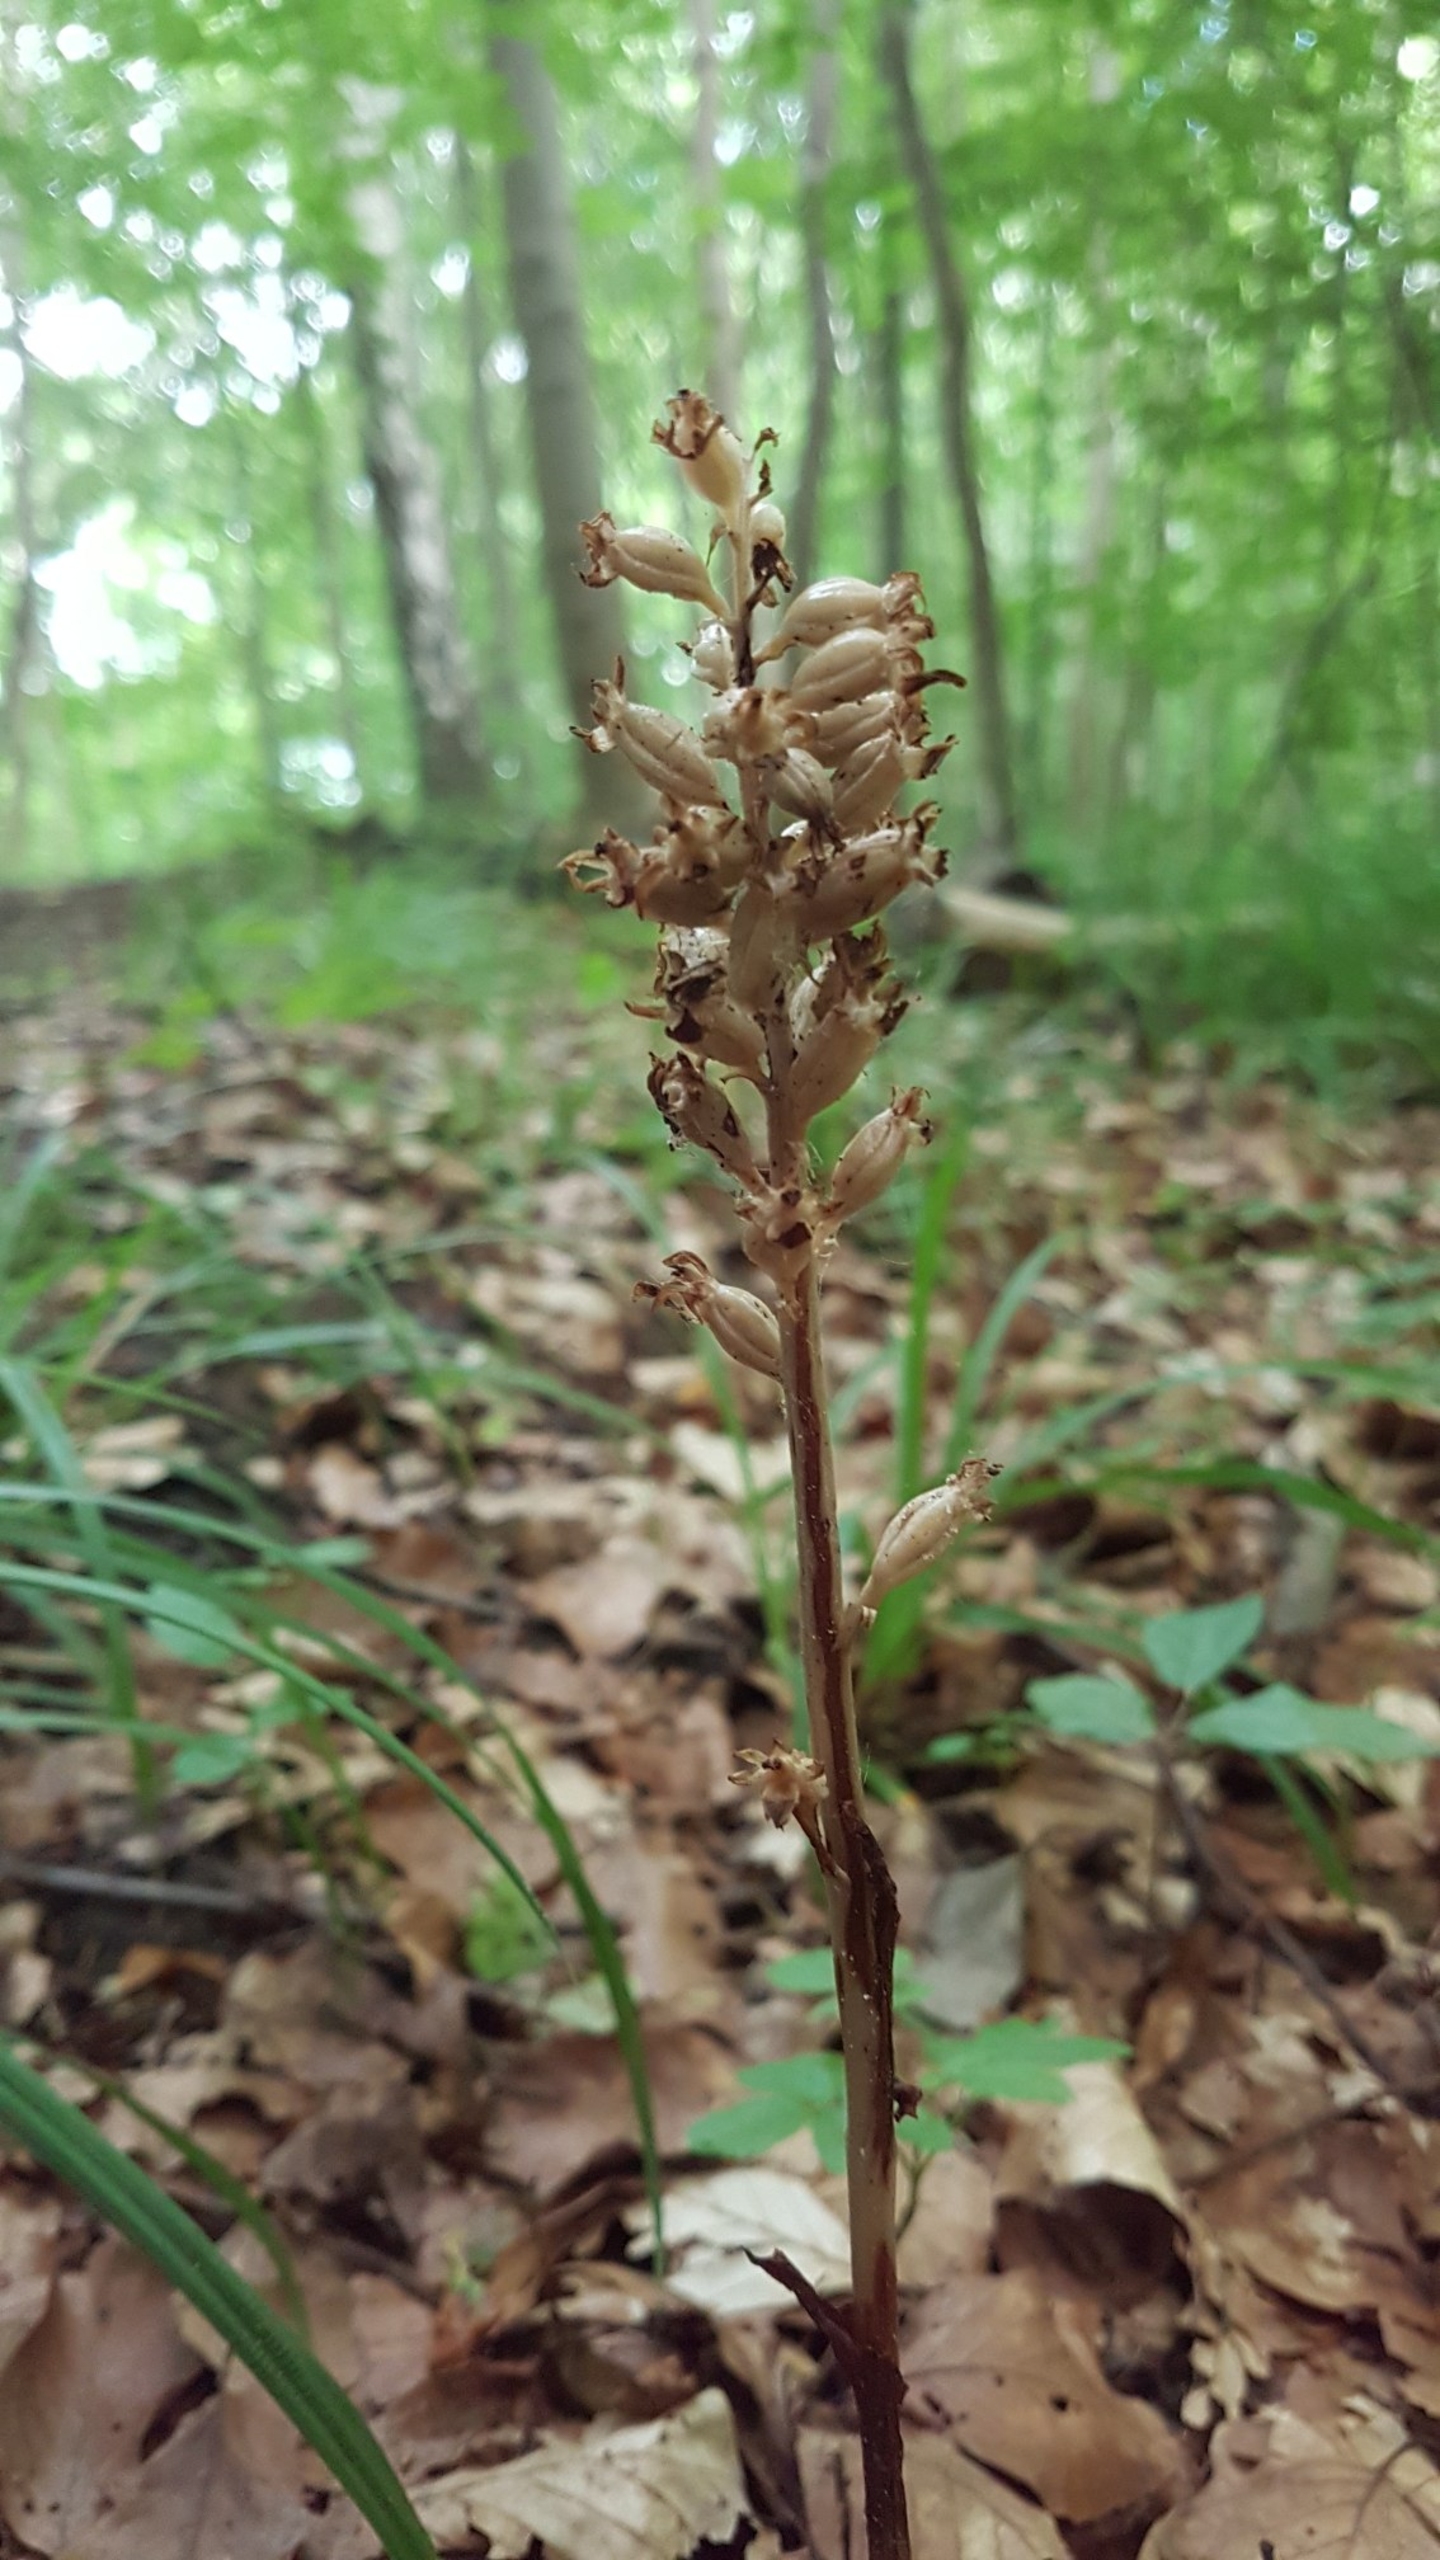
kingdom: Plantae
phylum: Tracheophyta
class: Liliopsida
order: Asparagales
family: Orchidaceae
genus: Neottia
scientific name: Neottia nidus-avis
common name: Rederod
